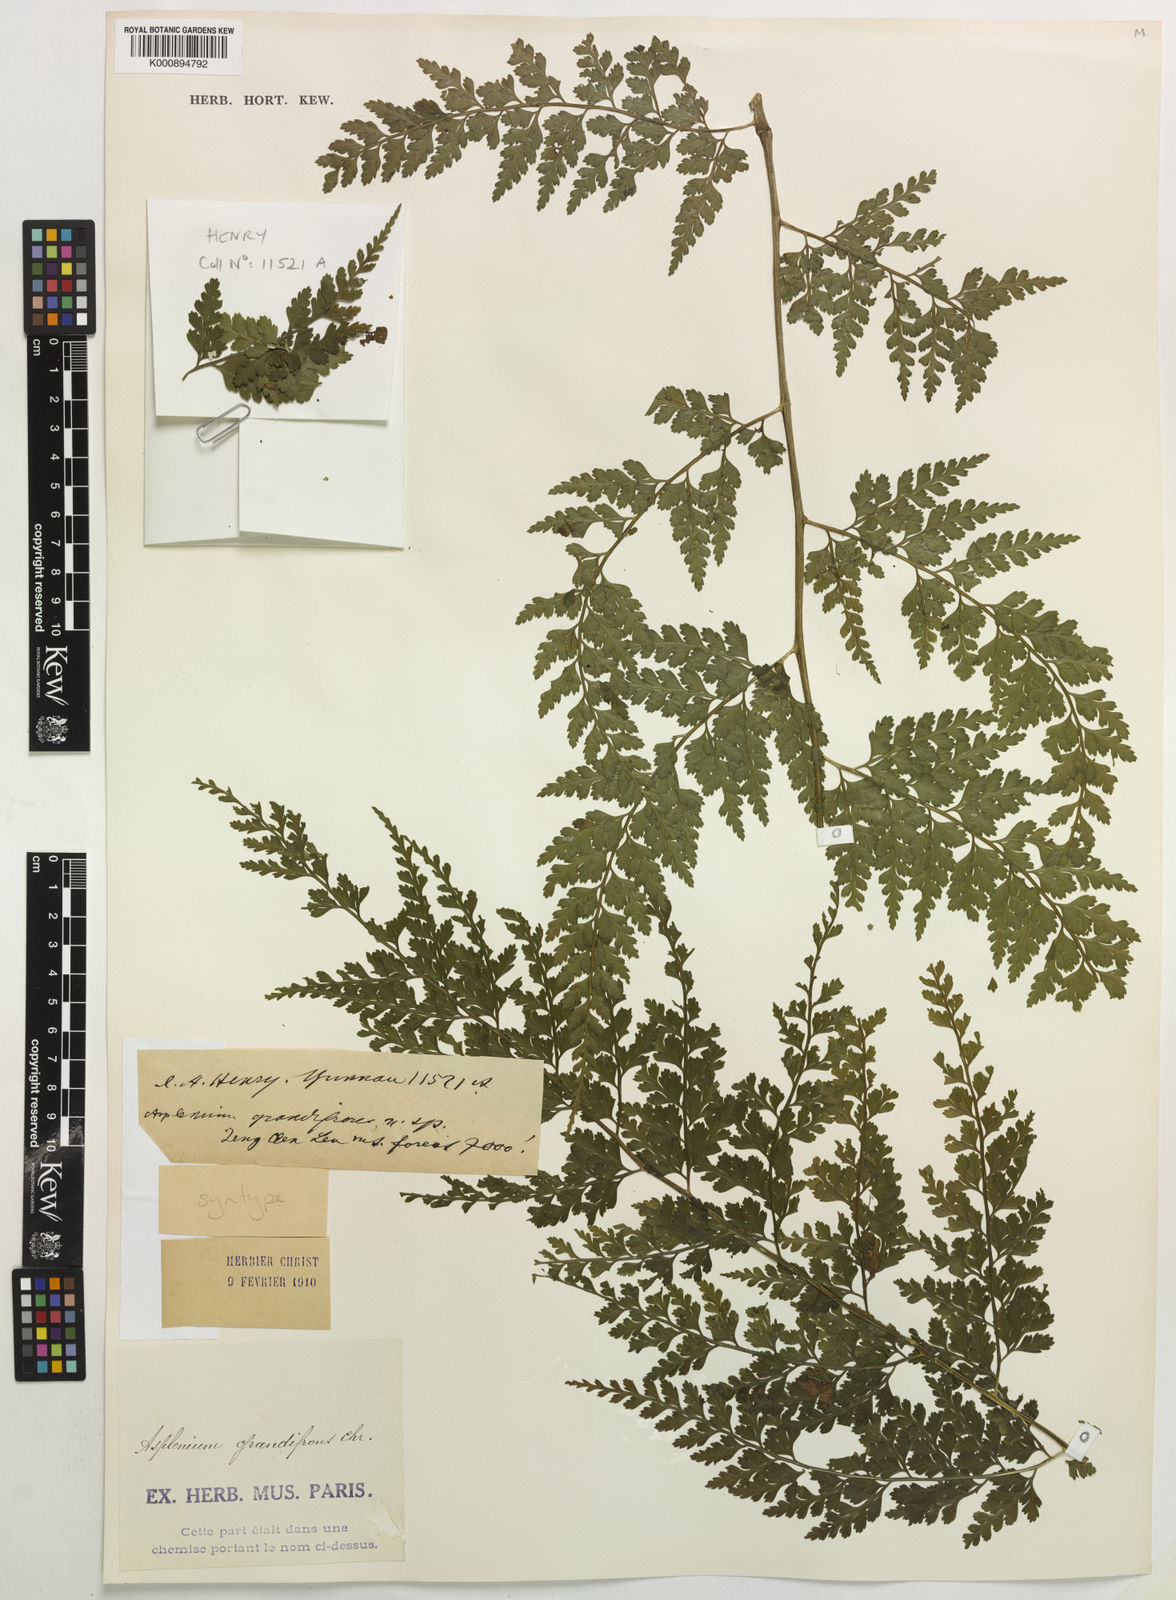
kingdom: Plantae
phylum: Tracheophyta
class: Polypodiopsida
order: Polypodiales
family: Aspleniaceae
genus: Asplenium
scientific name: Asplenium bullatum
